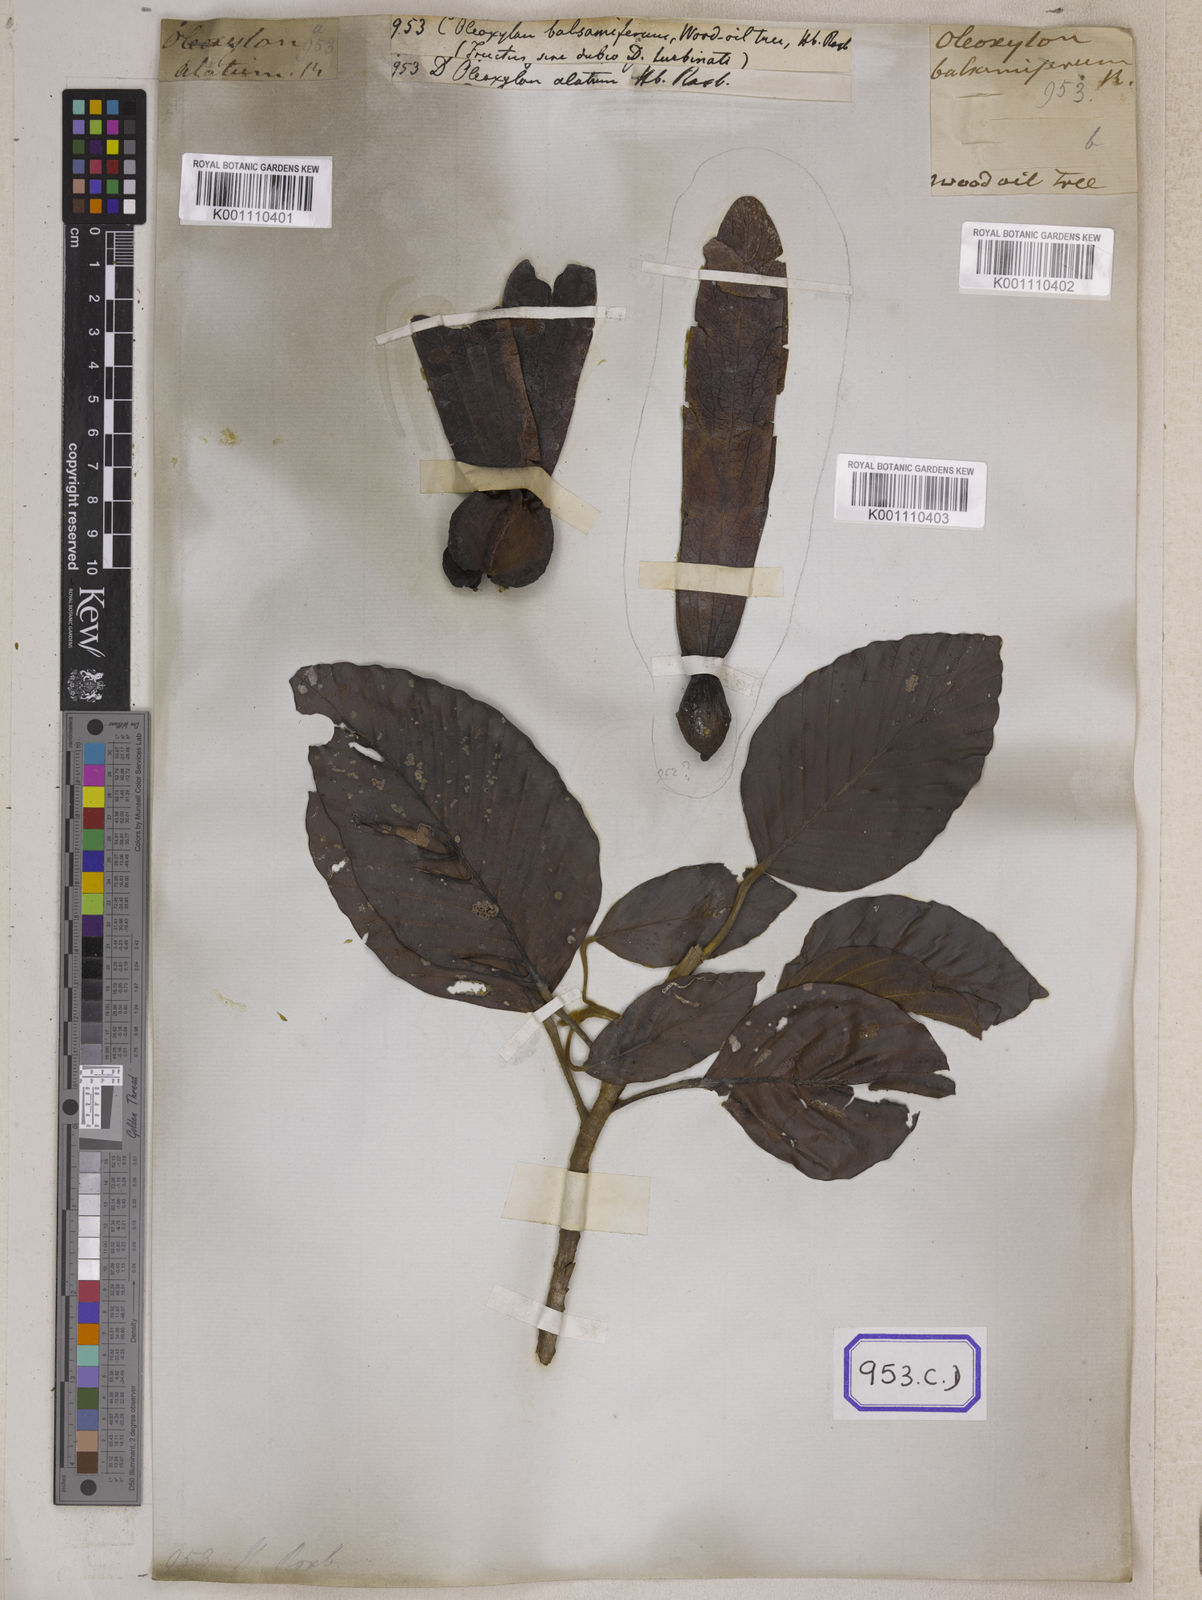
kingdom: Plantae
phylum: Tracheophyta
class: Magnoliopsida
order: Malvales
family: Dipterocarpaceae
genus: Dipterocarpus
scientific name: Dipterocarpus
